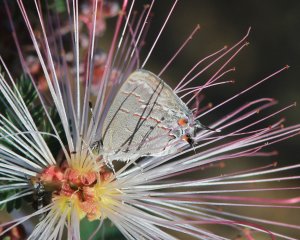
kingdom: Animalia
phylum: Arthropoda
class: Insecta
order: Lepidoptera
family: Lycaenidae
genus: Ministrymon
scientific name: Ministrymon leda
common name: Leda Ministreak
